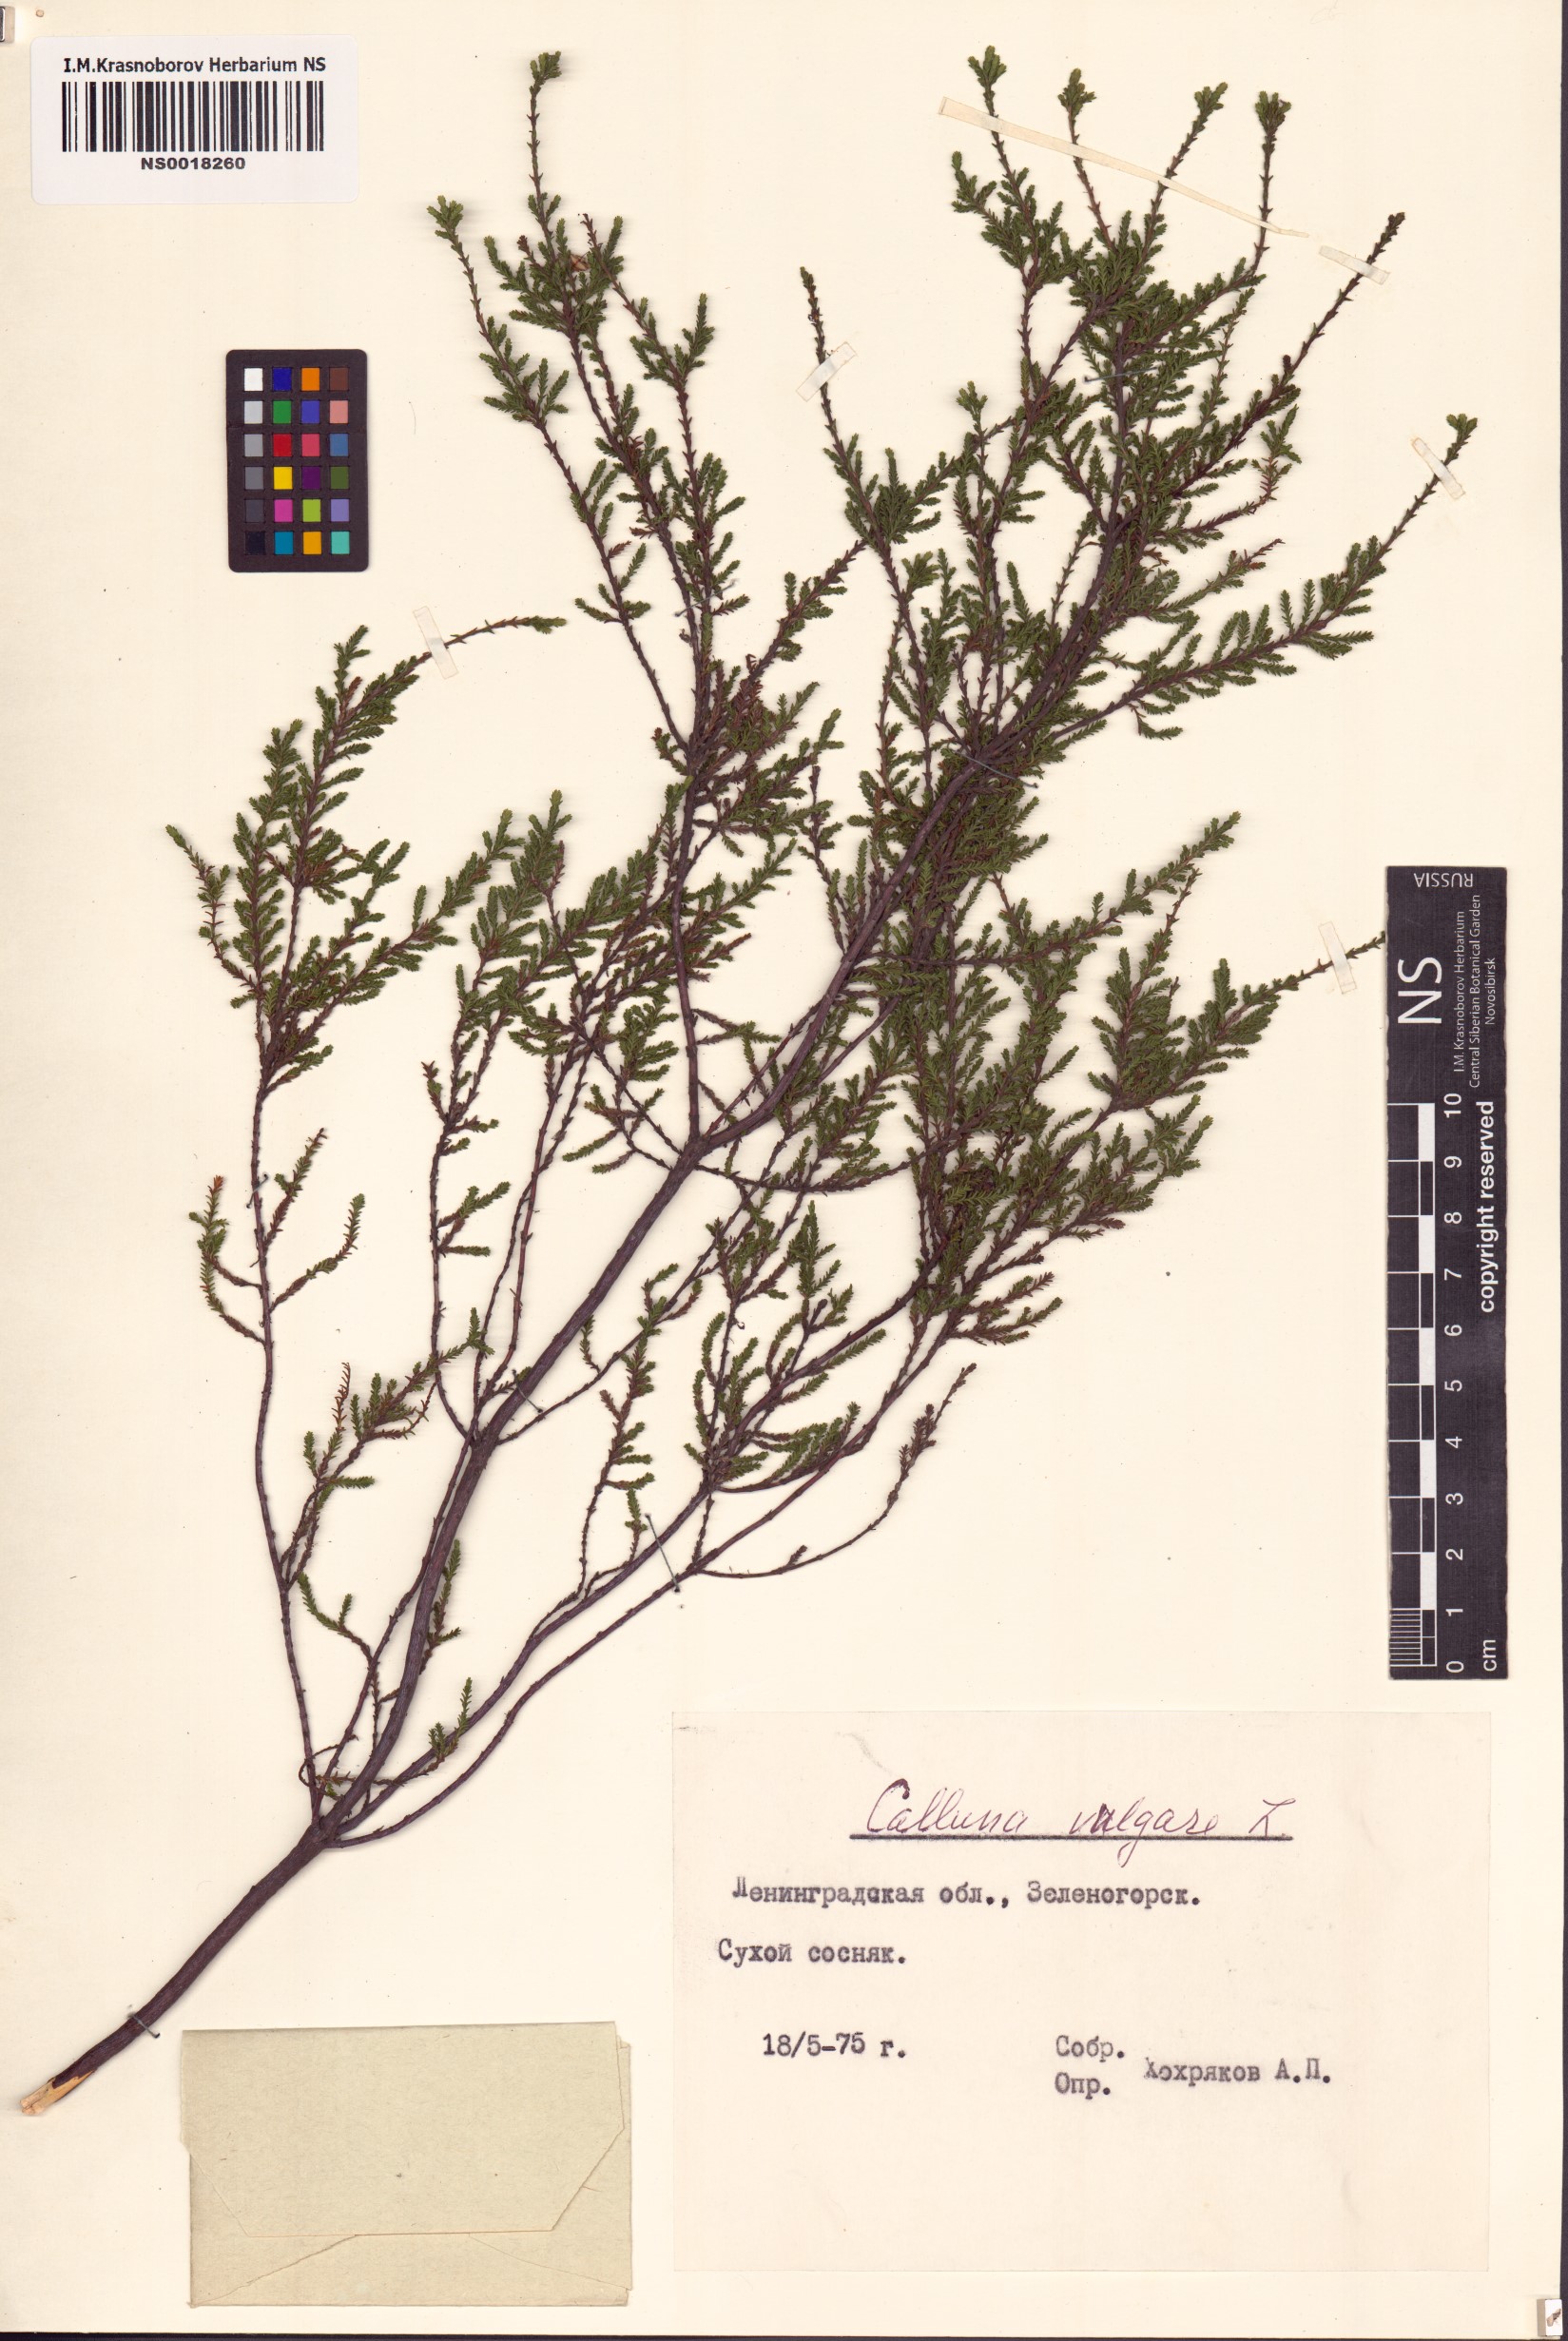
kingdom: Plantae
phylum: Tracheophyta
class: Magnoliopsida
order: Ericales
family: Ericaceae
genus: Calluna
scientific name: Calluna vulgaris
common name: Heather
